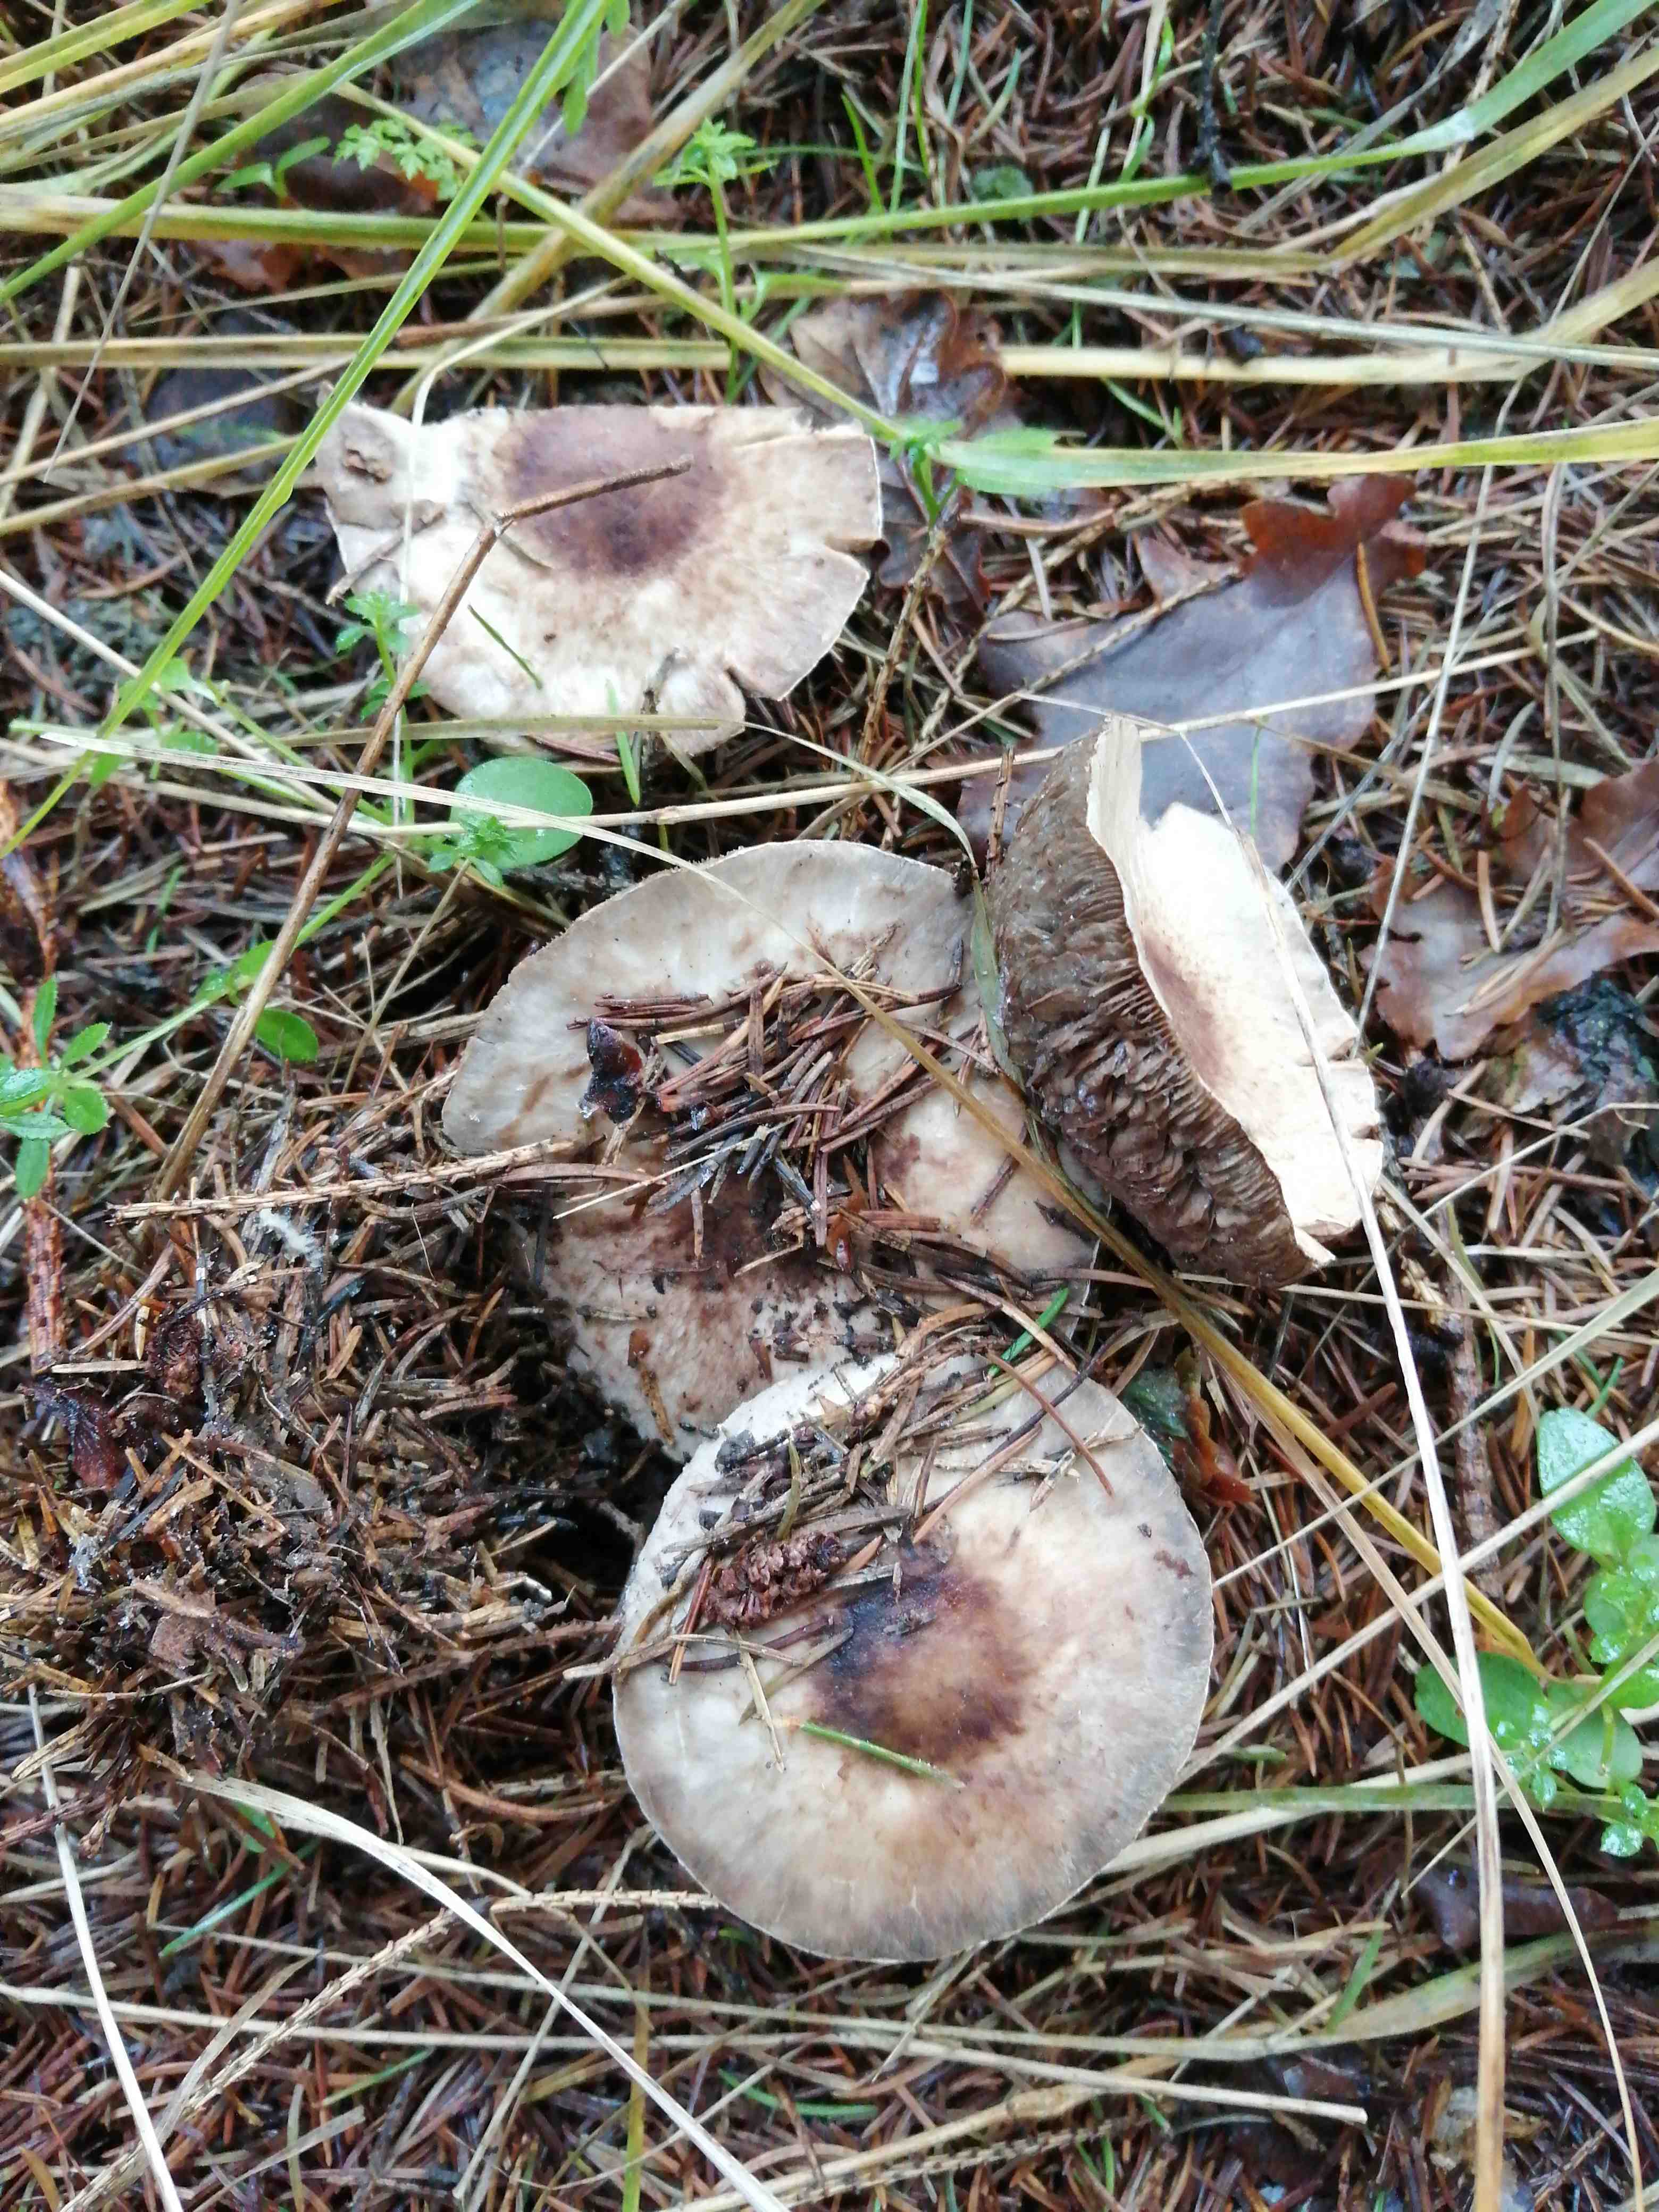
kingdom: Fungi
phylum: Basidiomycota
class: Agaricomycetes
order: Agaricales
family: Agaricaceae
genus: Agaricus
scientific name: Agaricus
